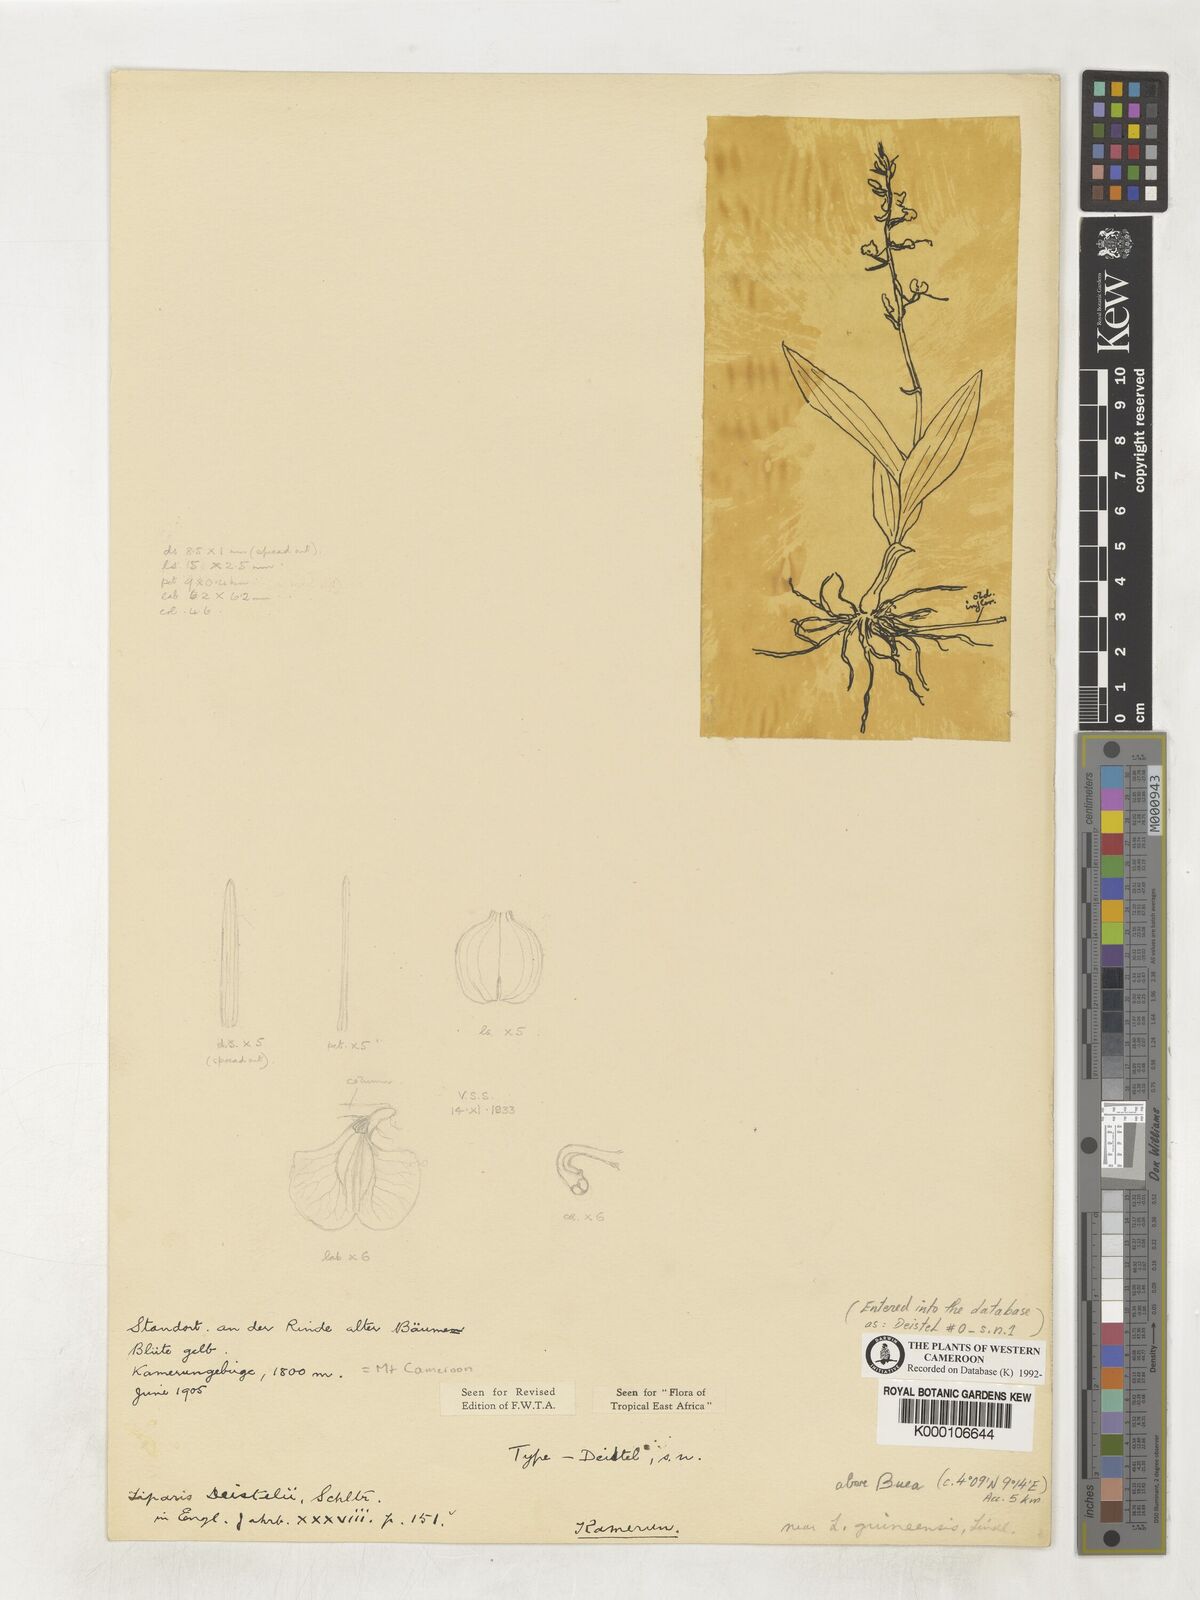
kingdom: Plantae
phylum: Tracheophyta
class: Liliopsida
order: Asparagales
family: Orchidaceae
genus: Liparis
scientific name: Liparis deistelii
